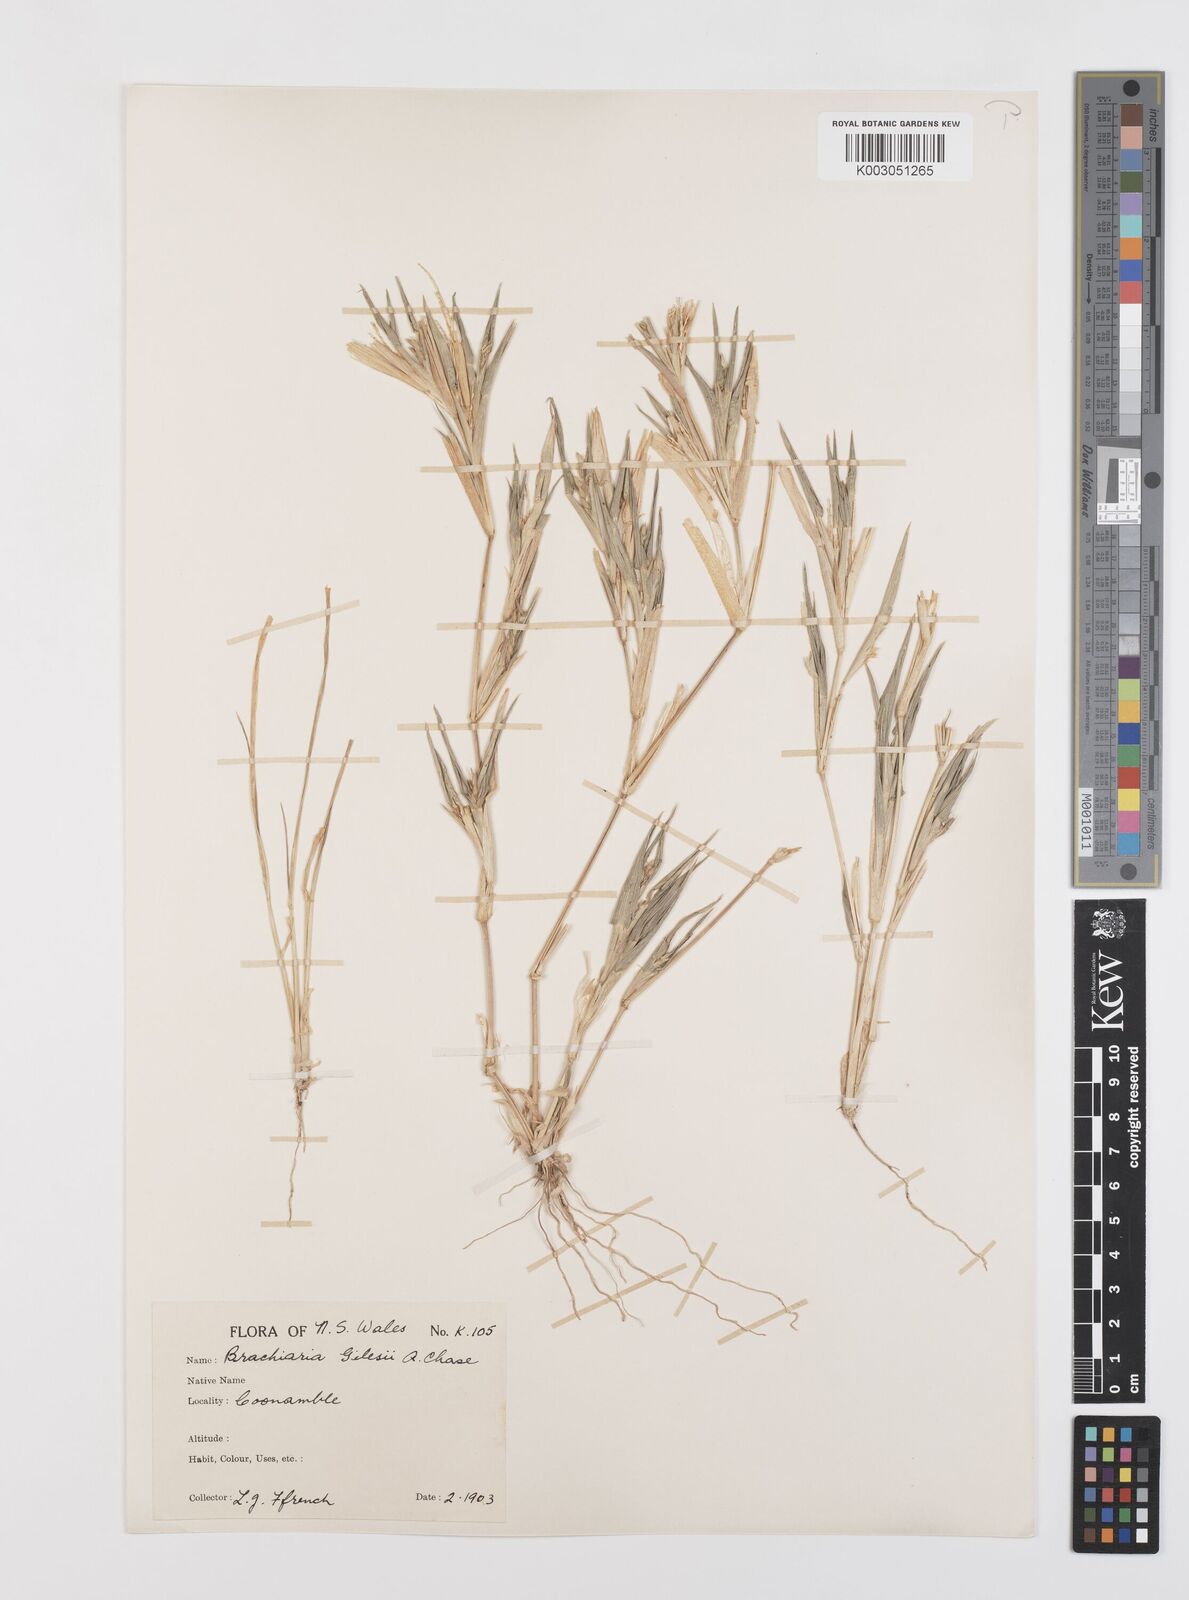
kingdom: Plantae
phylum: Tracheophyta
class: Liliopsida
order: Poales
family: Poaceae
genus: Urochloa
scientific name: Urochloa gilesii
